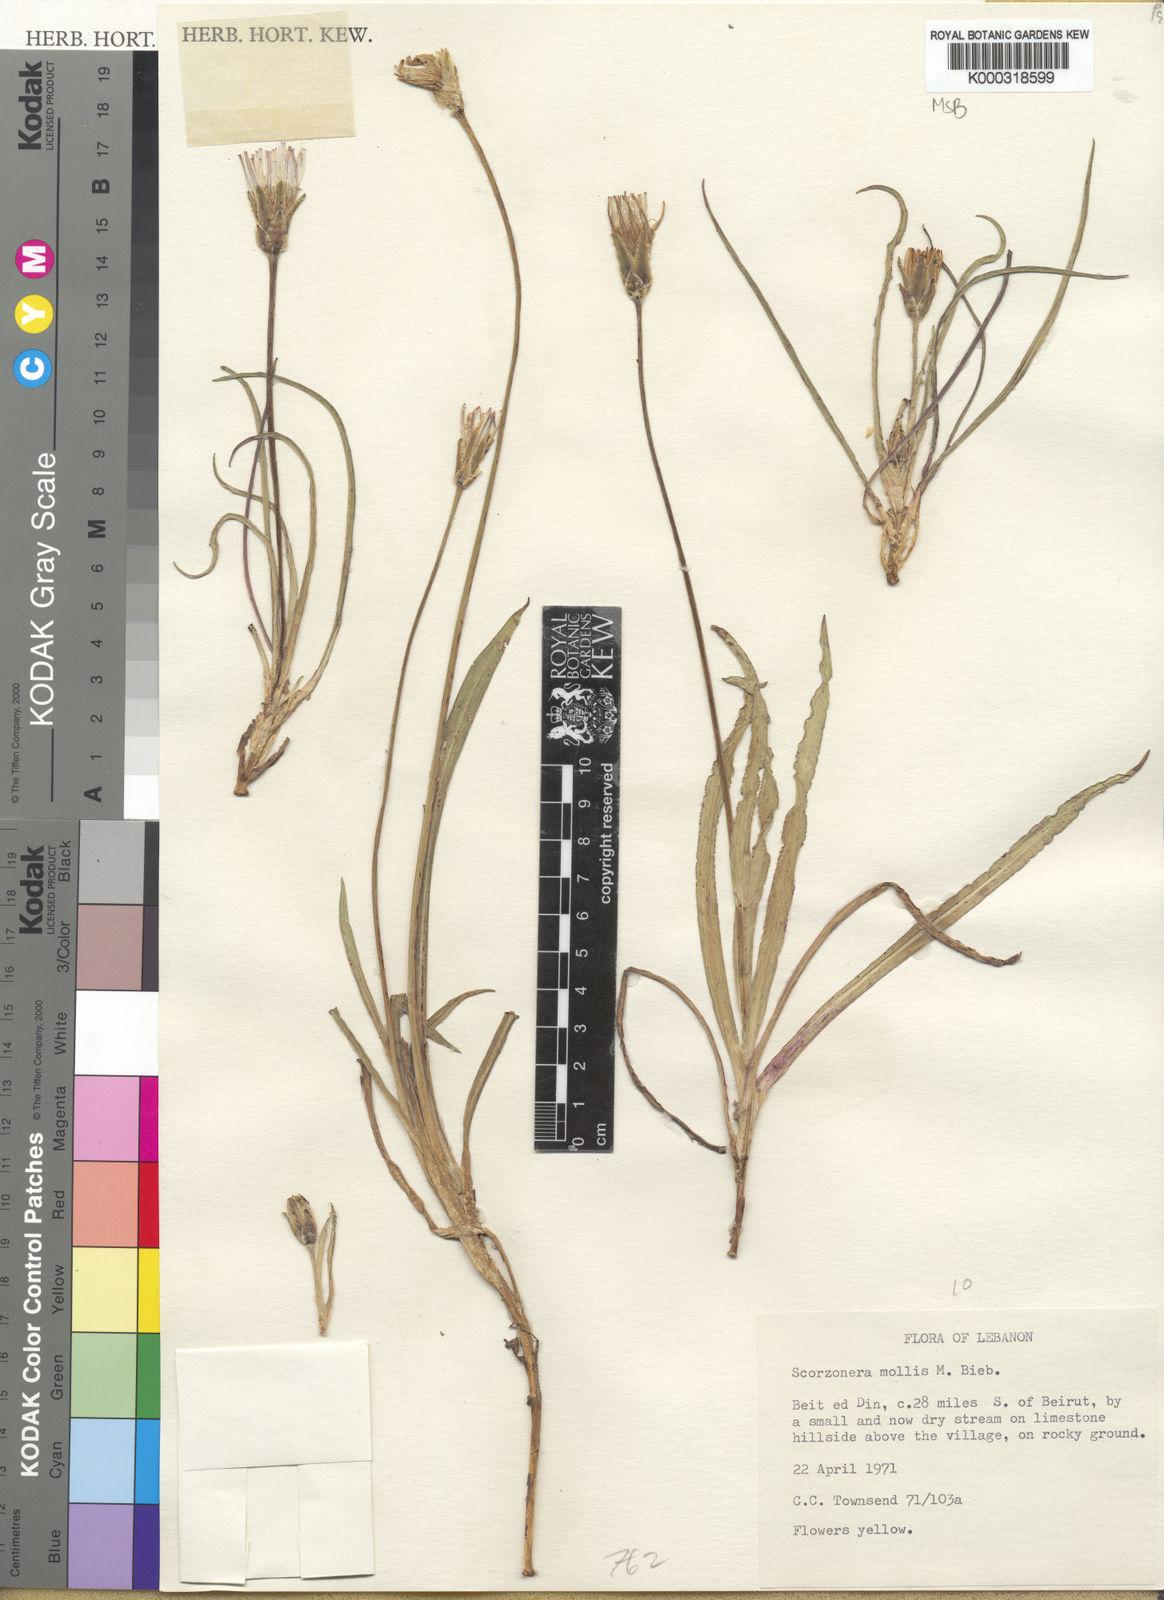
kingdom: Plantae
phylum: Tracheophyta
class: Magnoliopsida
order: Asterales
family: Asteraceae
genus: Candollea
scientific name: Candollea mollis
